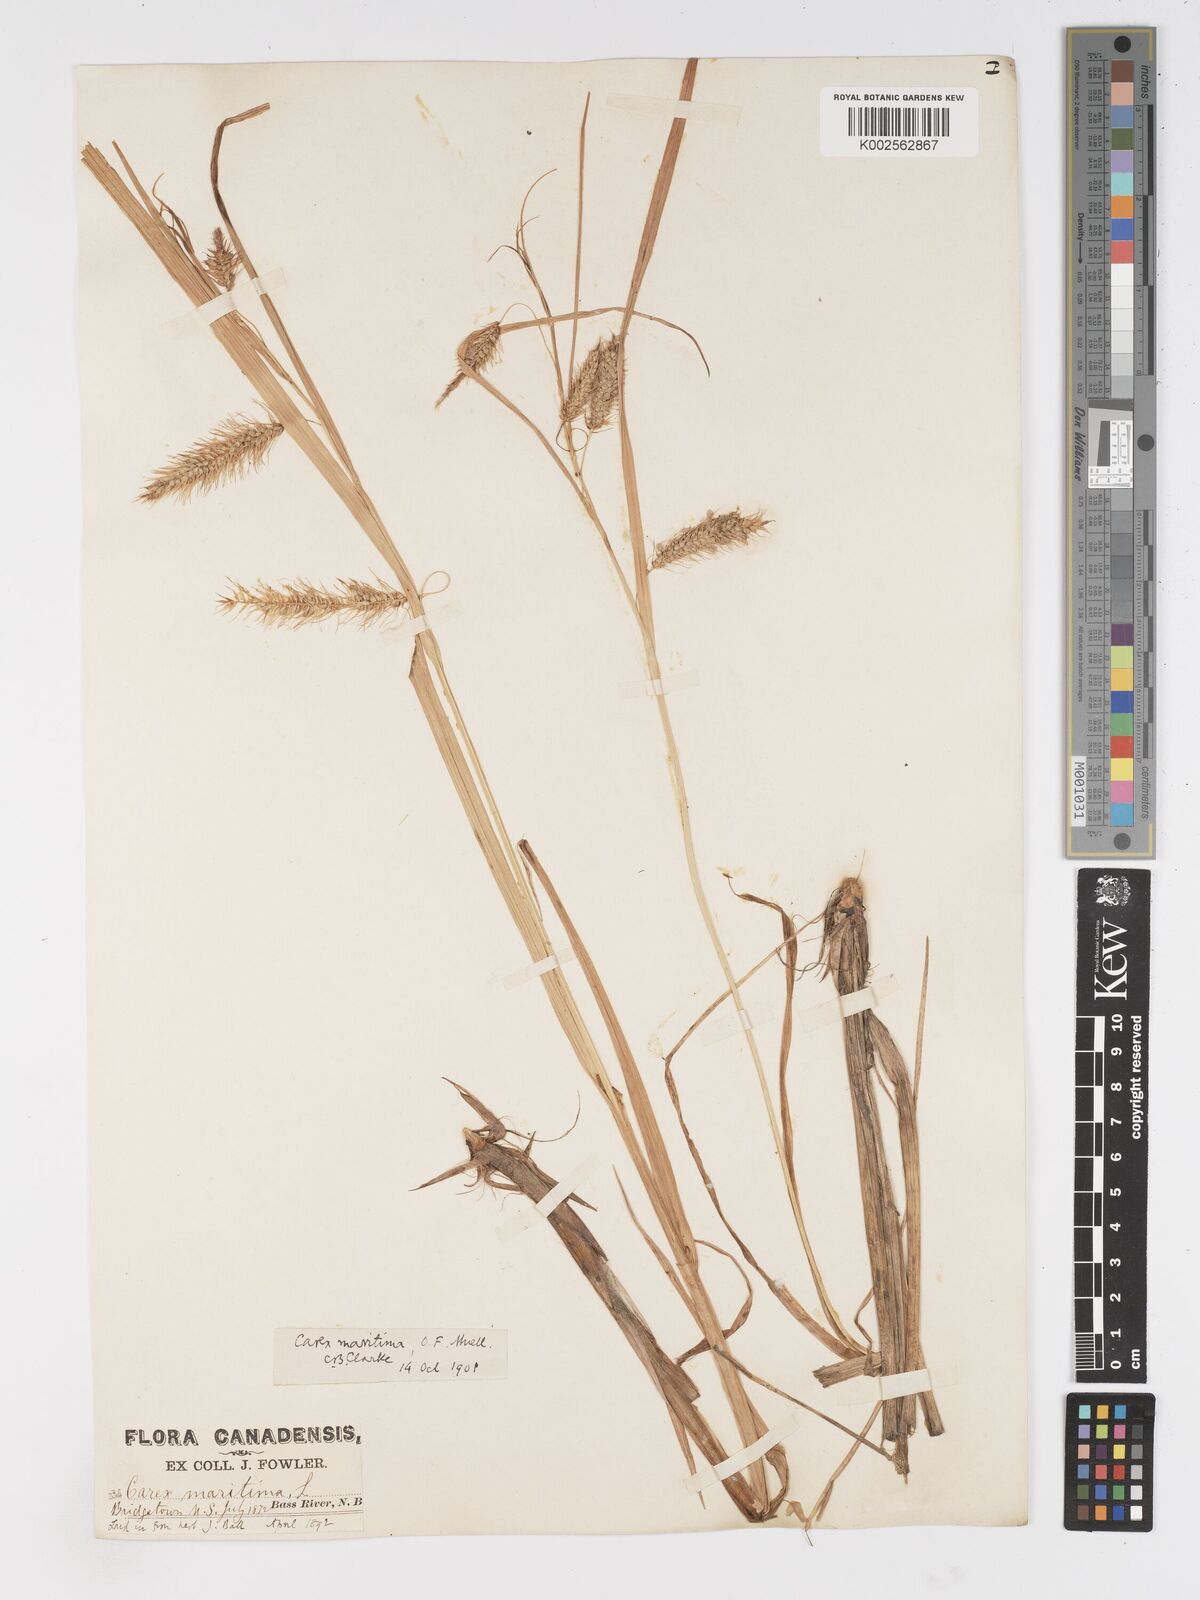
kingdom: Plantae
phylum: Tracheophyta
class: Liliopsida
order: Poales
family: Cyperaceae
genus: Carex
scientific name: Carex paleacea
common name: Chaffy sedge
